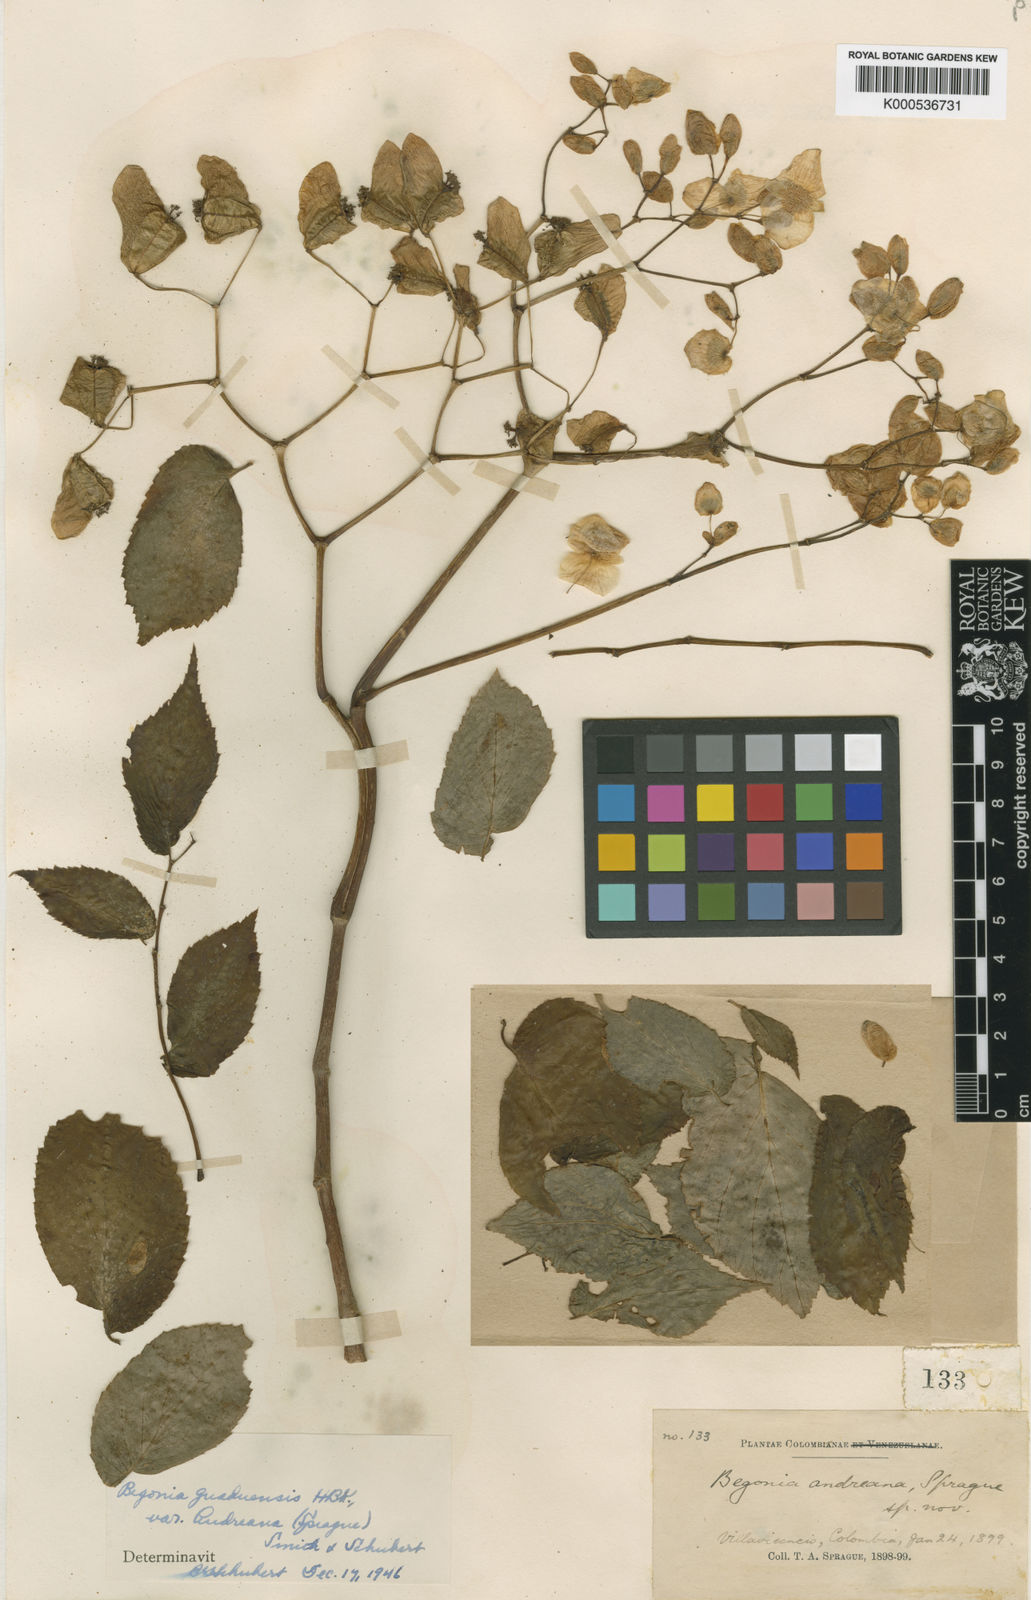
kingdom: Plantae
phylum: Tracheophyta
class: Magnoliopsida
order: Cucurbitales
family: Begoniaceae
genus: Begonia
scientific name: Begonia guaduensis
